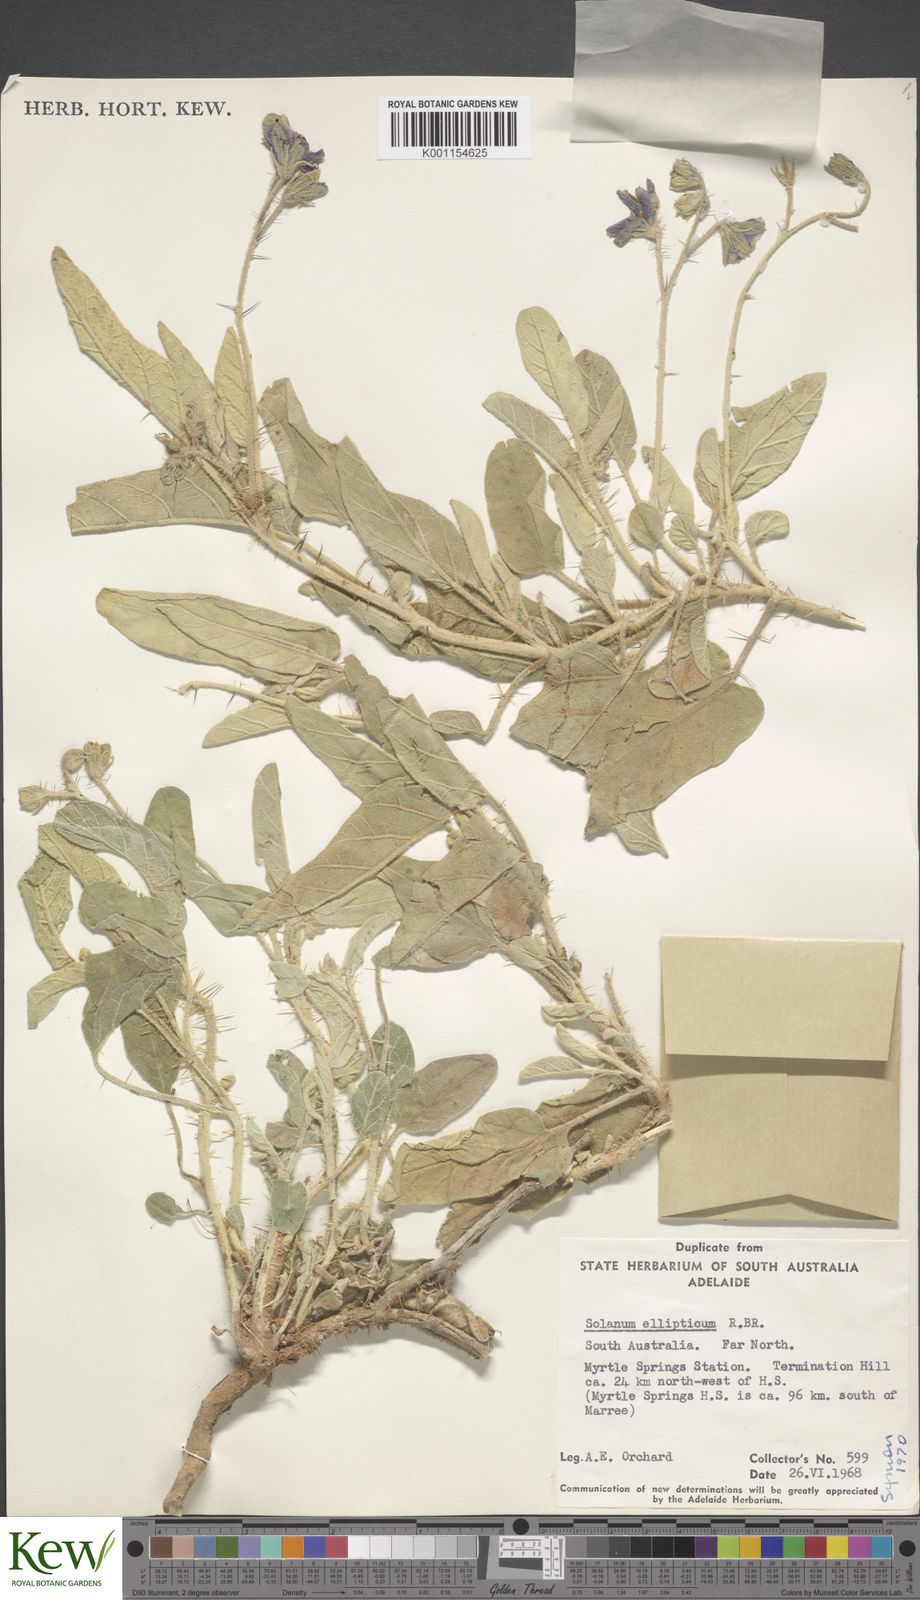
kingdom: Plantae
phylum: Tracheophyta
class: Magnoliopsida
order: Solanales
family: Solanaceae
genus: Solanum
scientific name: Solanum ellipticum
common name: Potato-bush
